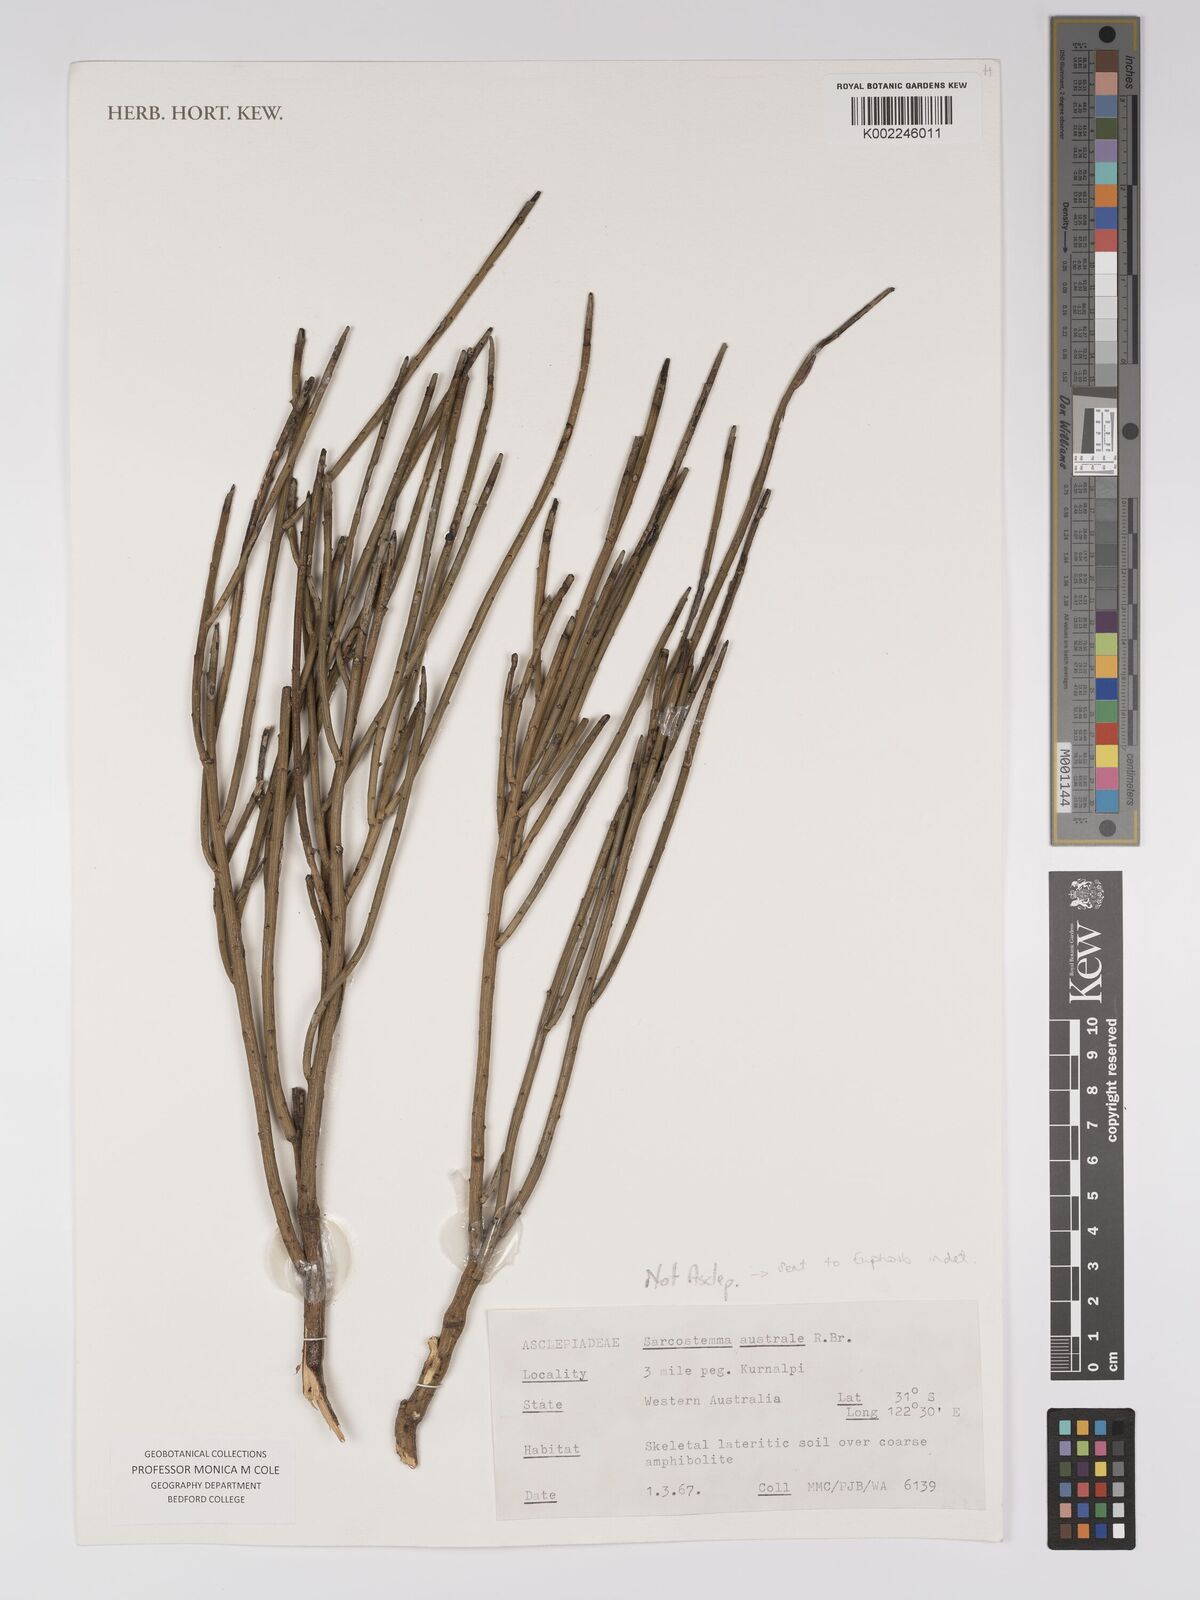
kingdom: Plantae
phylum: Tracheophyta
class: Magnoliopsida
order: Malpighiales
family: Euphorbiaceae
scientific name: Euphorbiaceae
